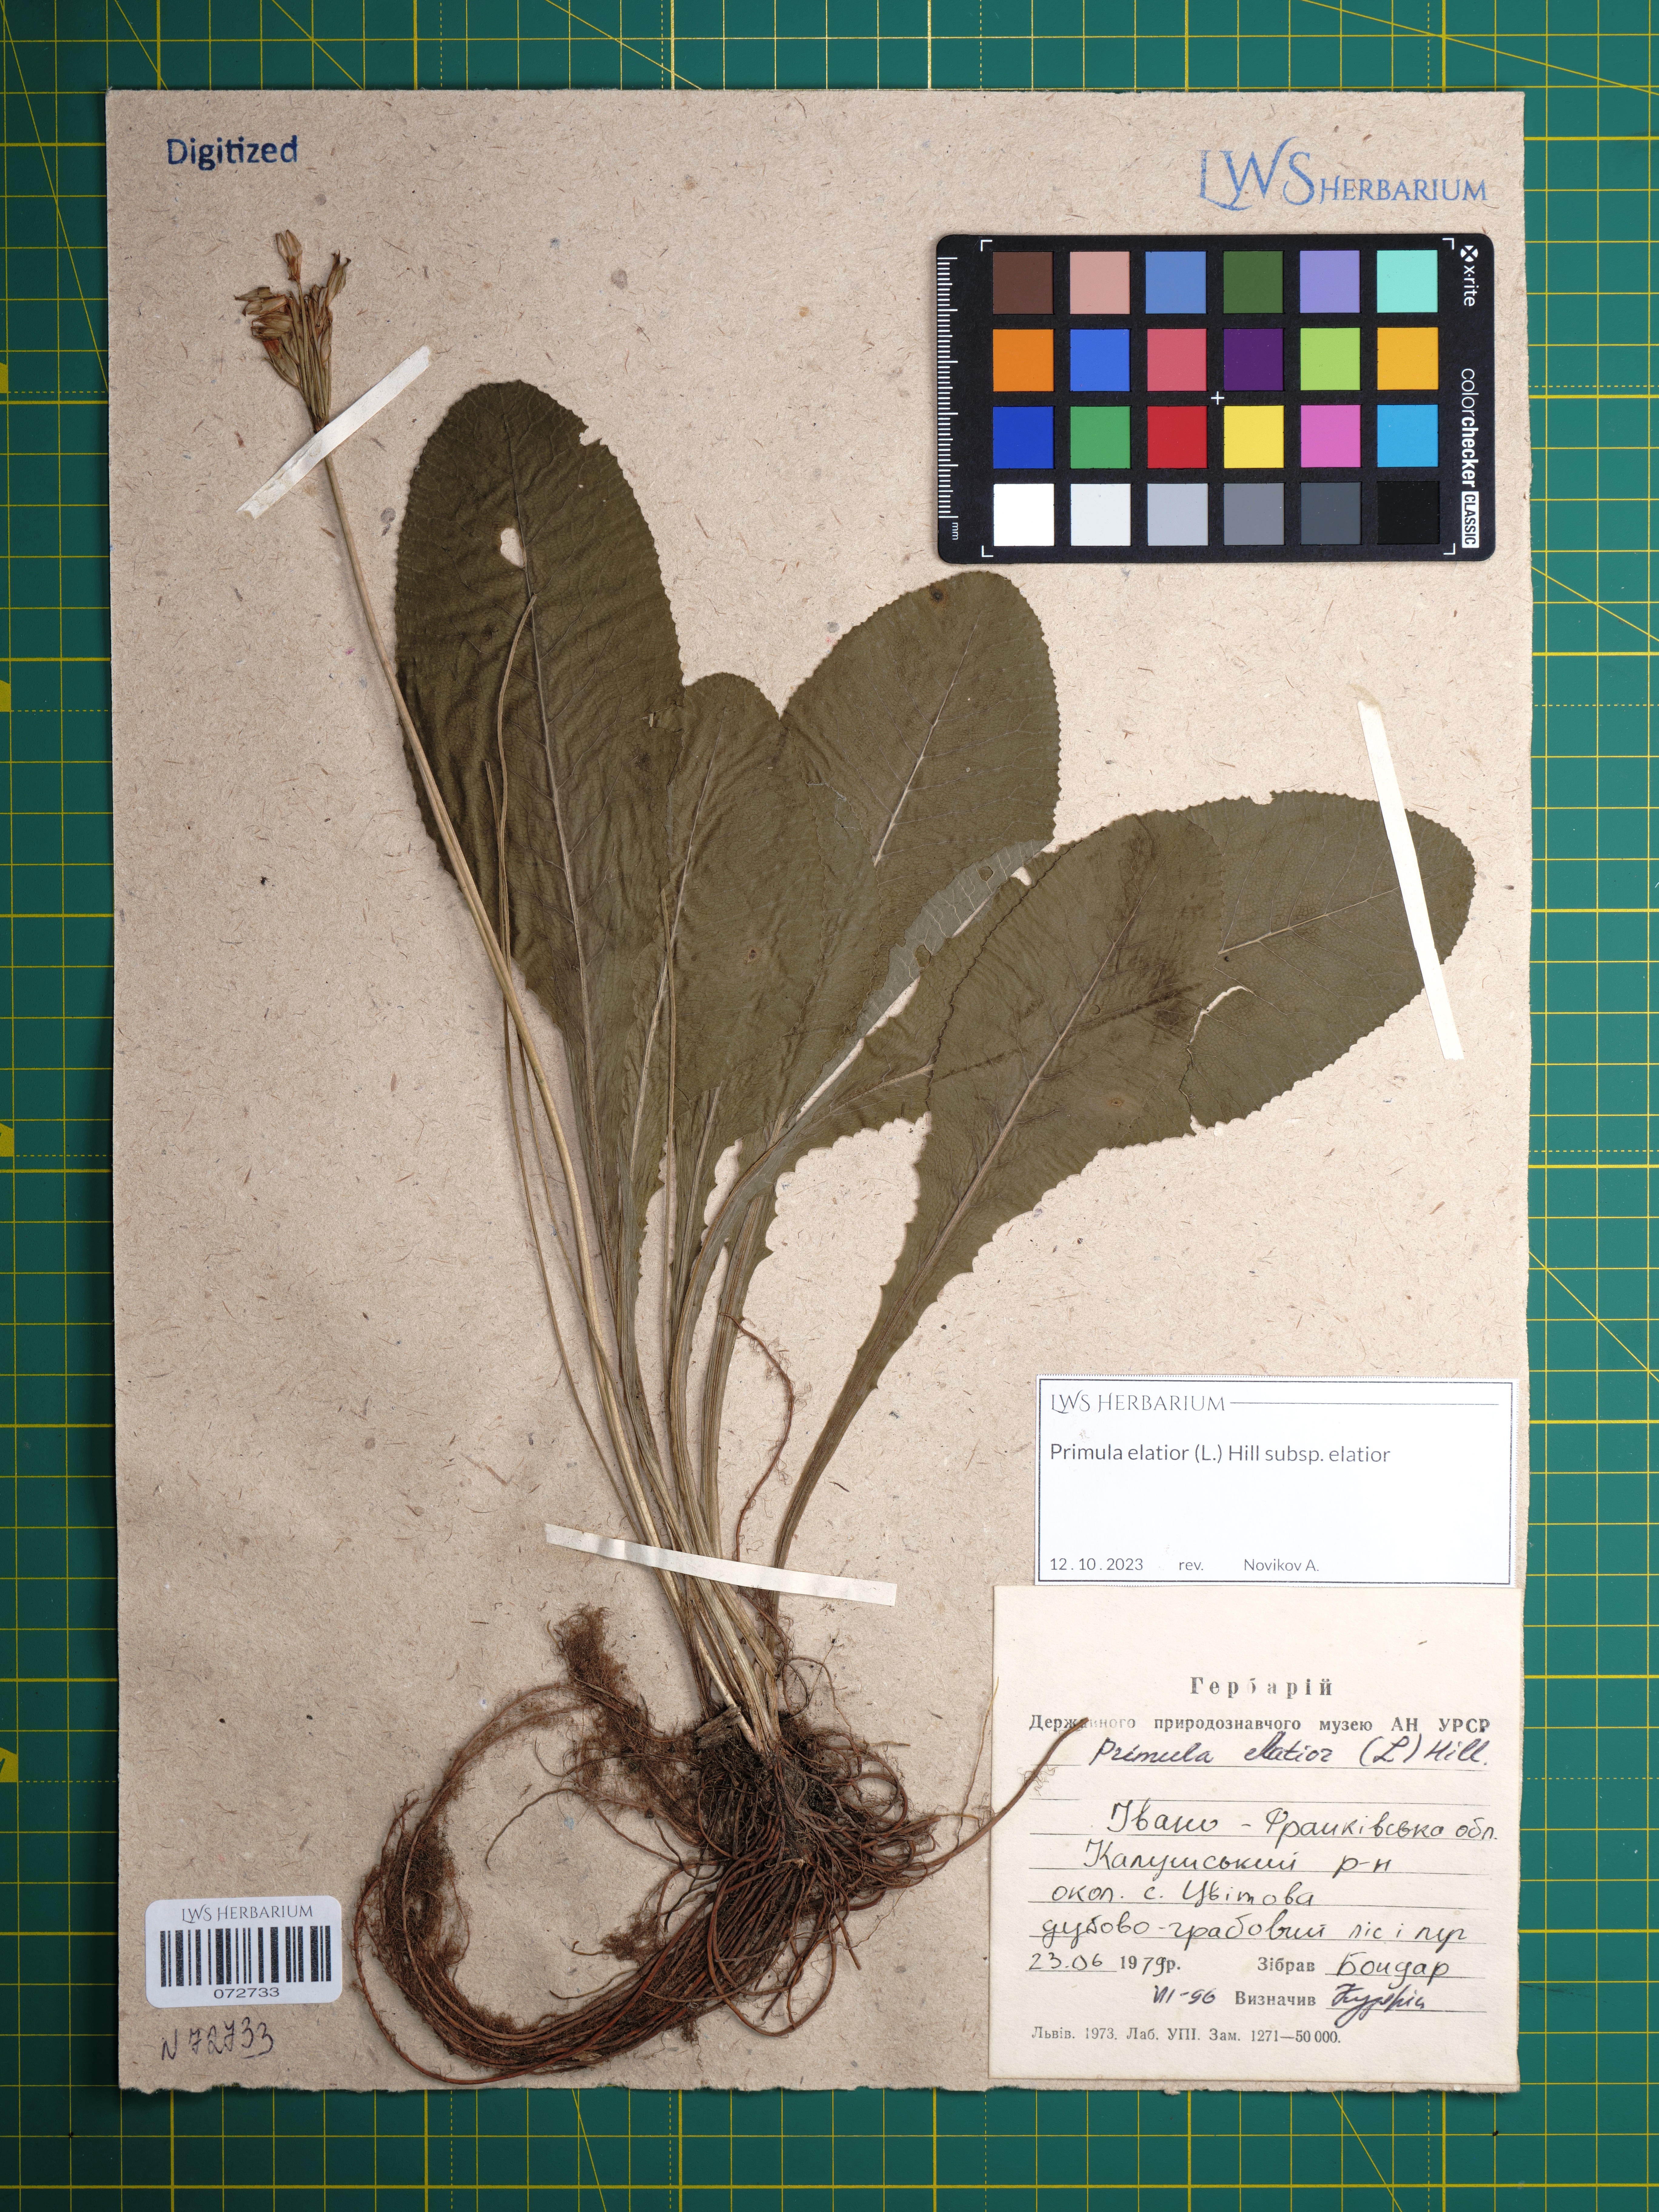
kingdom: Plantae
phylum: Tracheophyta
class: Magnoliopsida
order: Ericales
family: Primulaceae
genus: Primula
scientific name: Primula elatior
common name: Oxlip
